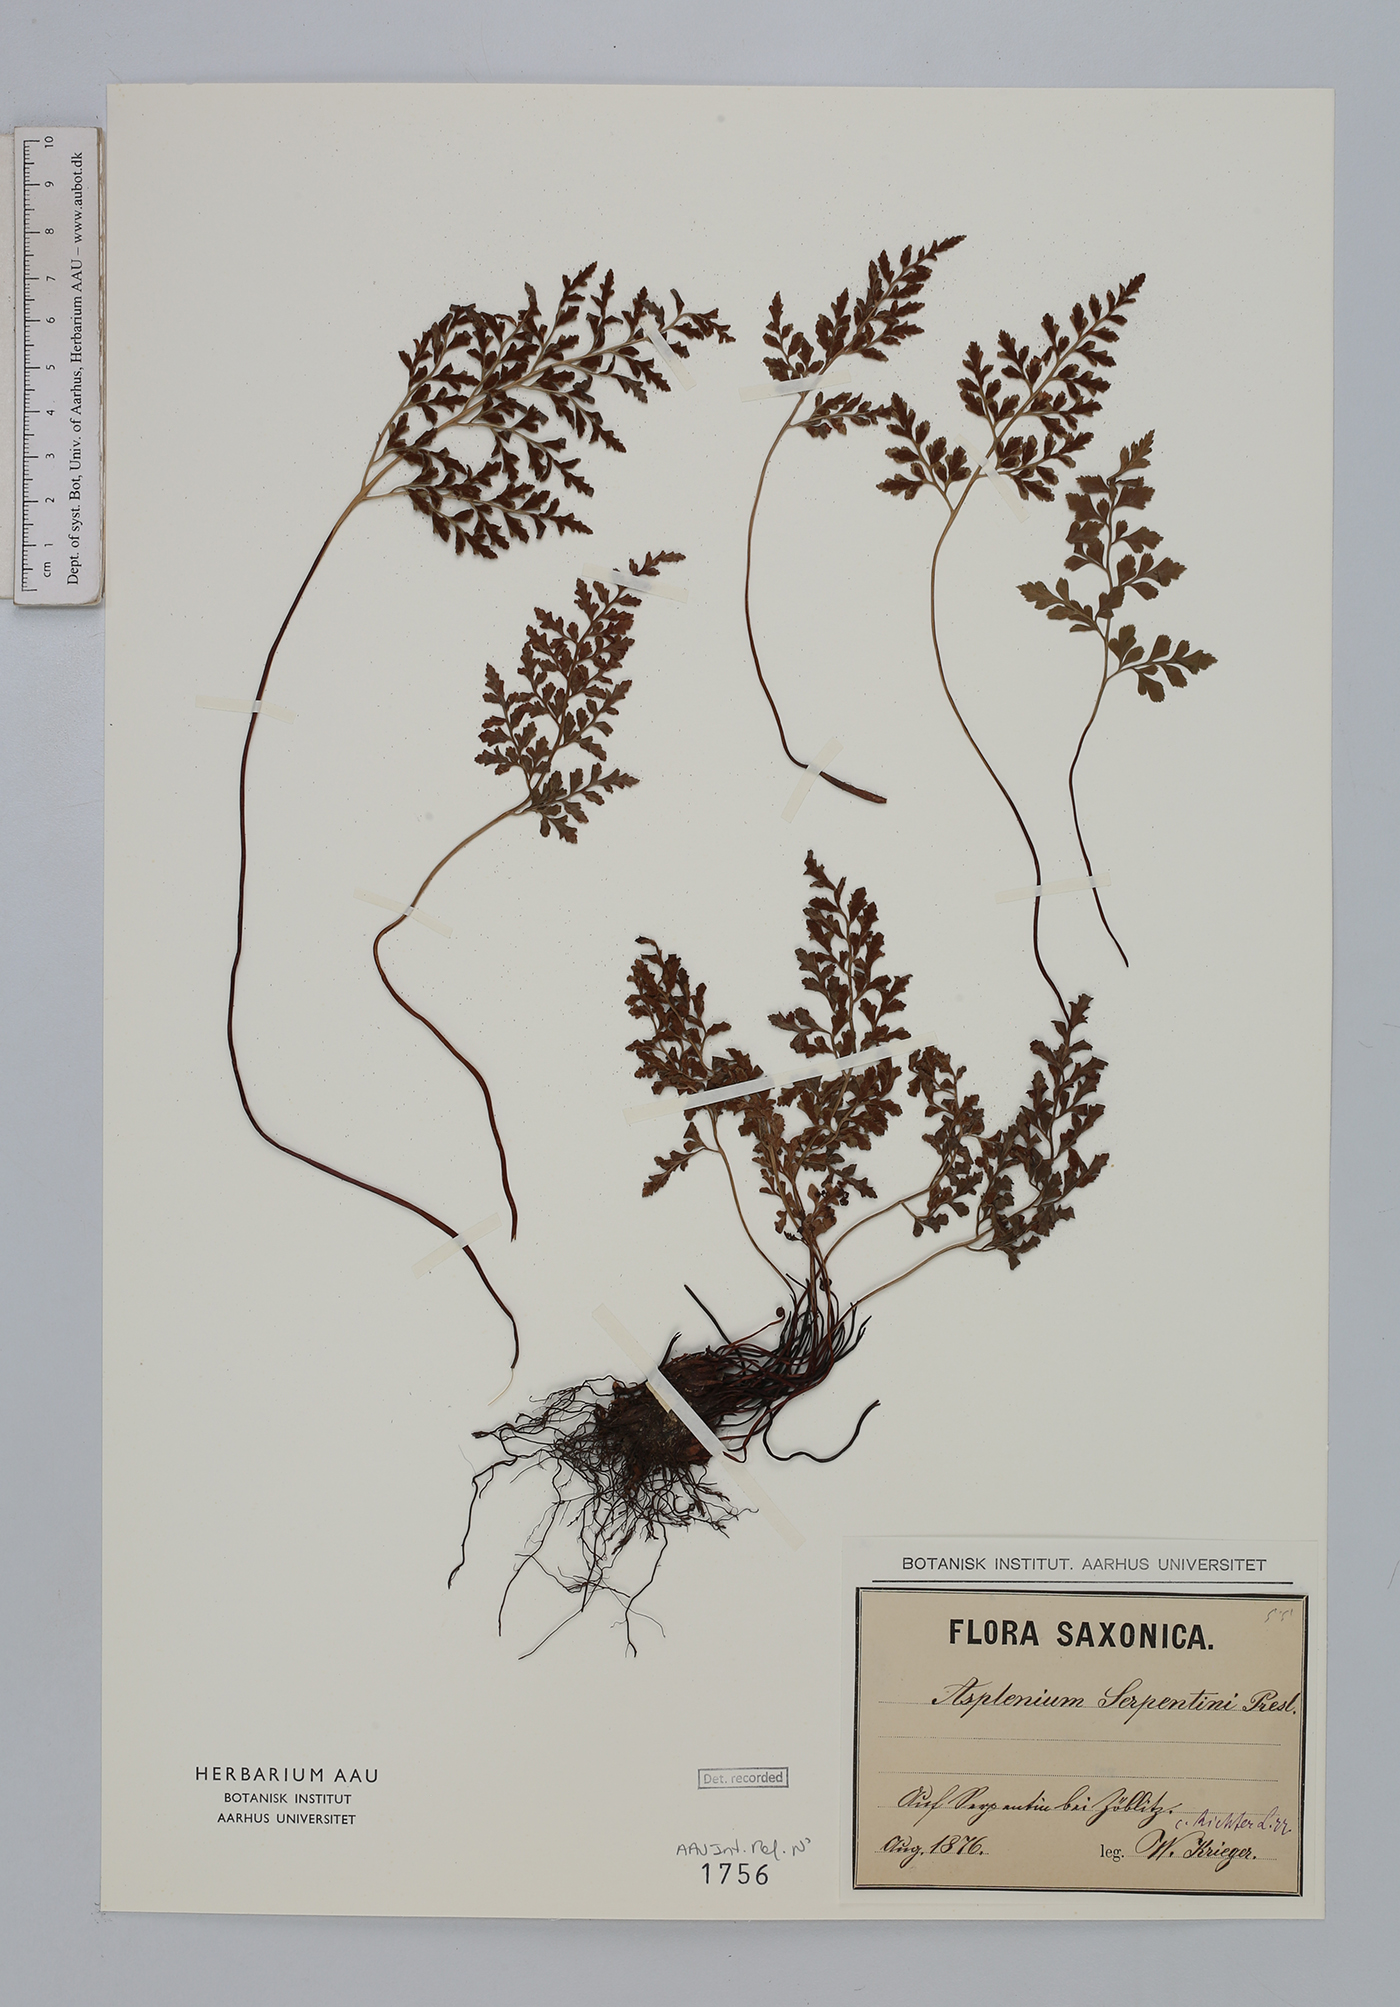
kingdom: Plantae
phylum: Tracheophyta
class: Polypodiopsida
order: Polypodiales
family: Aspleniaceae
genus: Asplenium
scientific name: Asplenium cuneifolium
